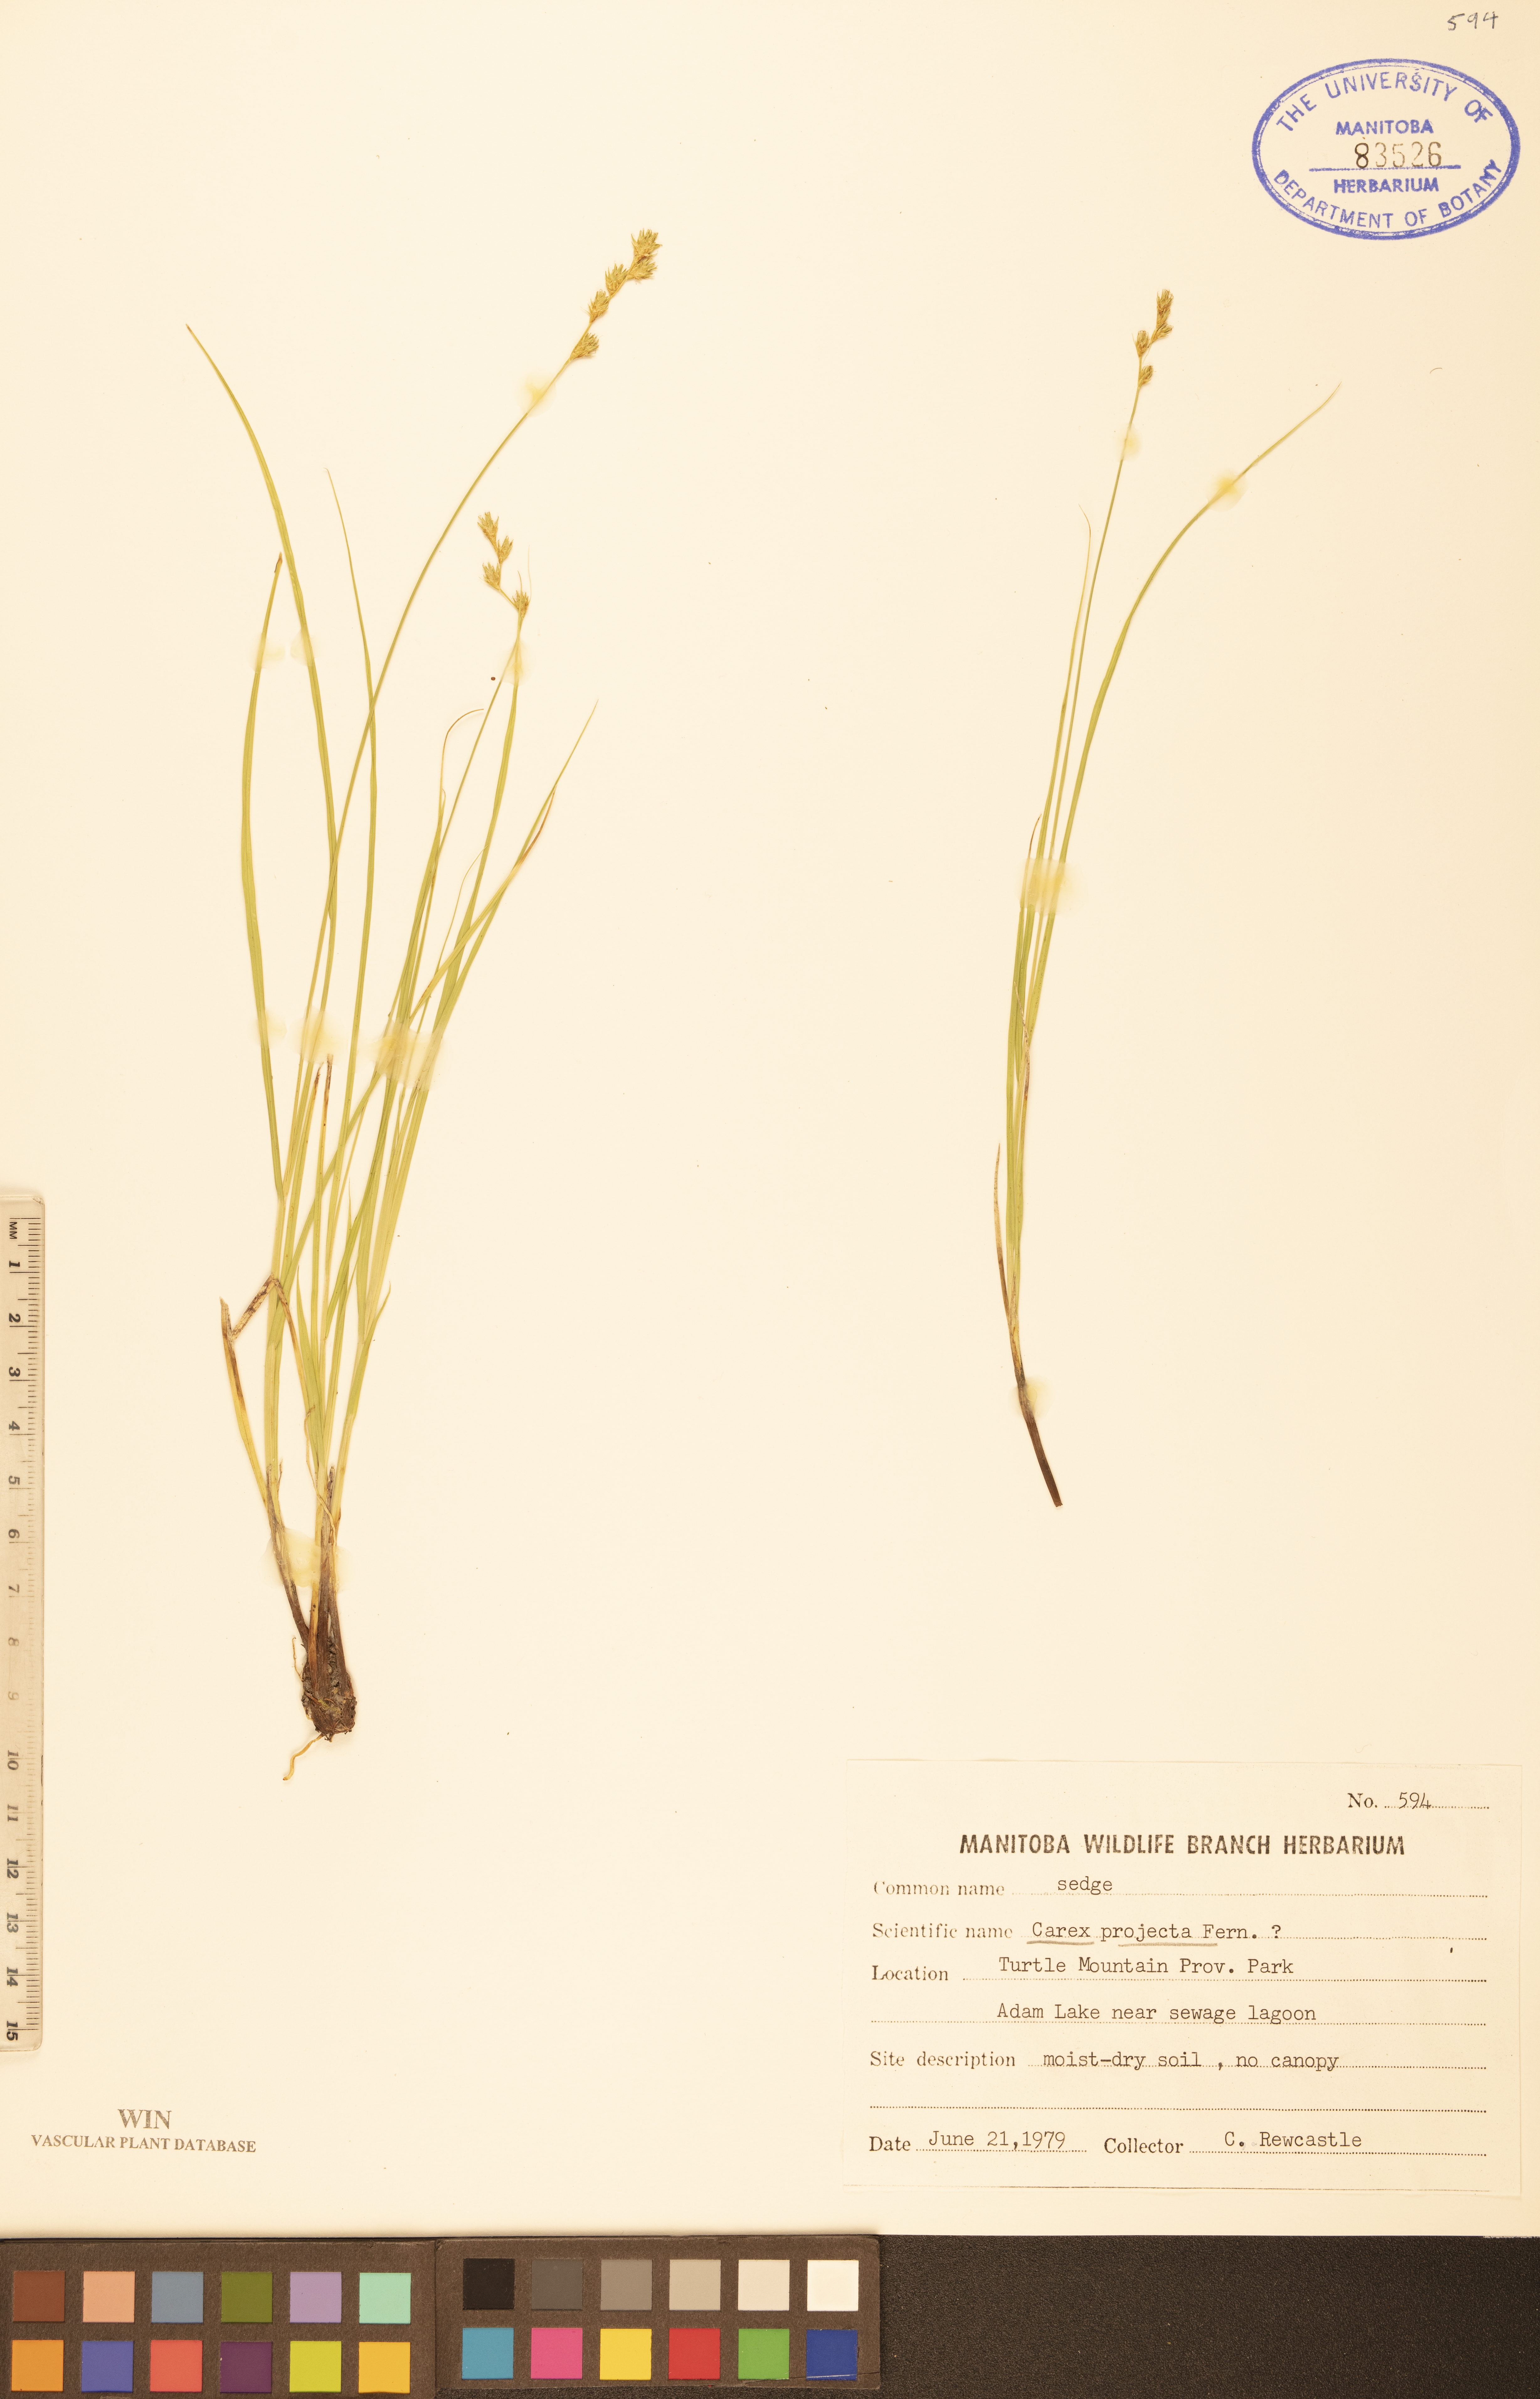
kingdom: Plantae
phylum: Tracheophyta
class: Liliopsida
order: Poales
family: Cyperaceae
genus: Carex
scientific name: Carex projecta
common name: Loose-headed oval sedge
